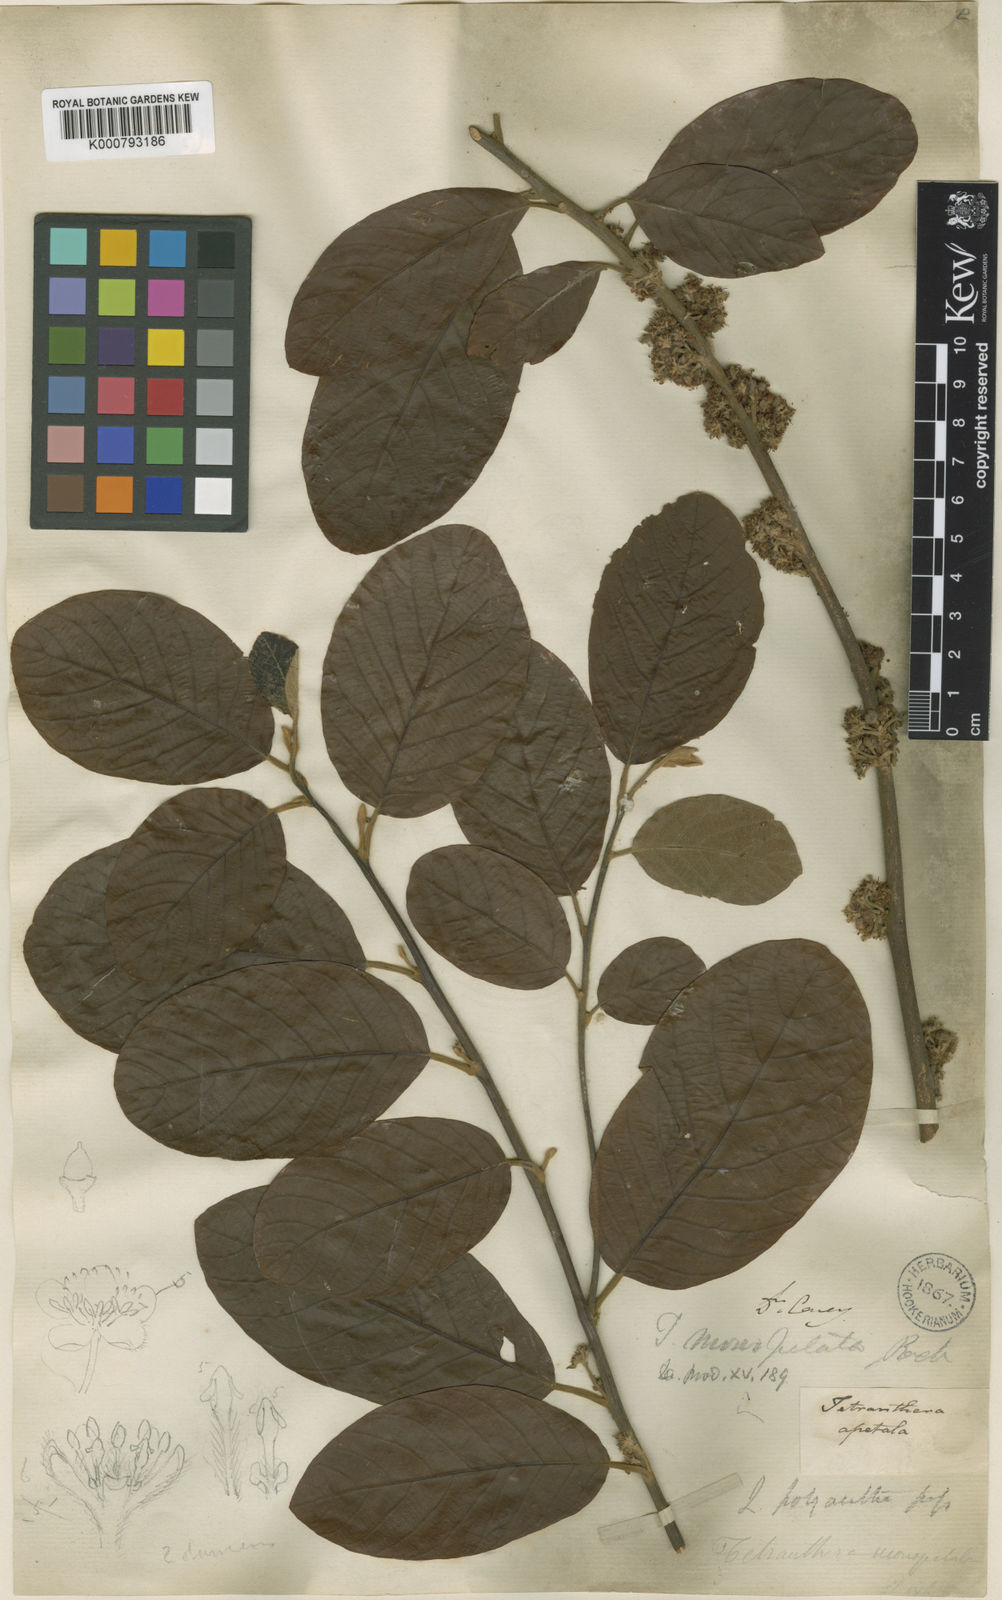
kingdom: Plantae
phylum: Tracheophyta
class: Magnoliopsida
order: Laurales
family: Lauraceae
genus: Litsea
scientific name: Litsea monopetala
